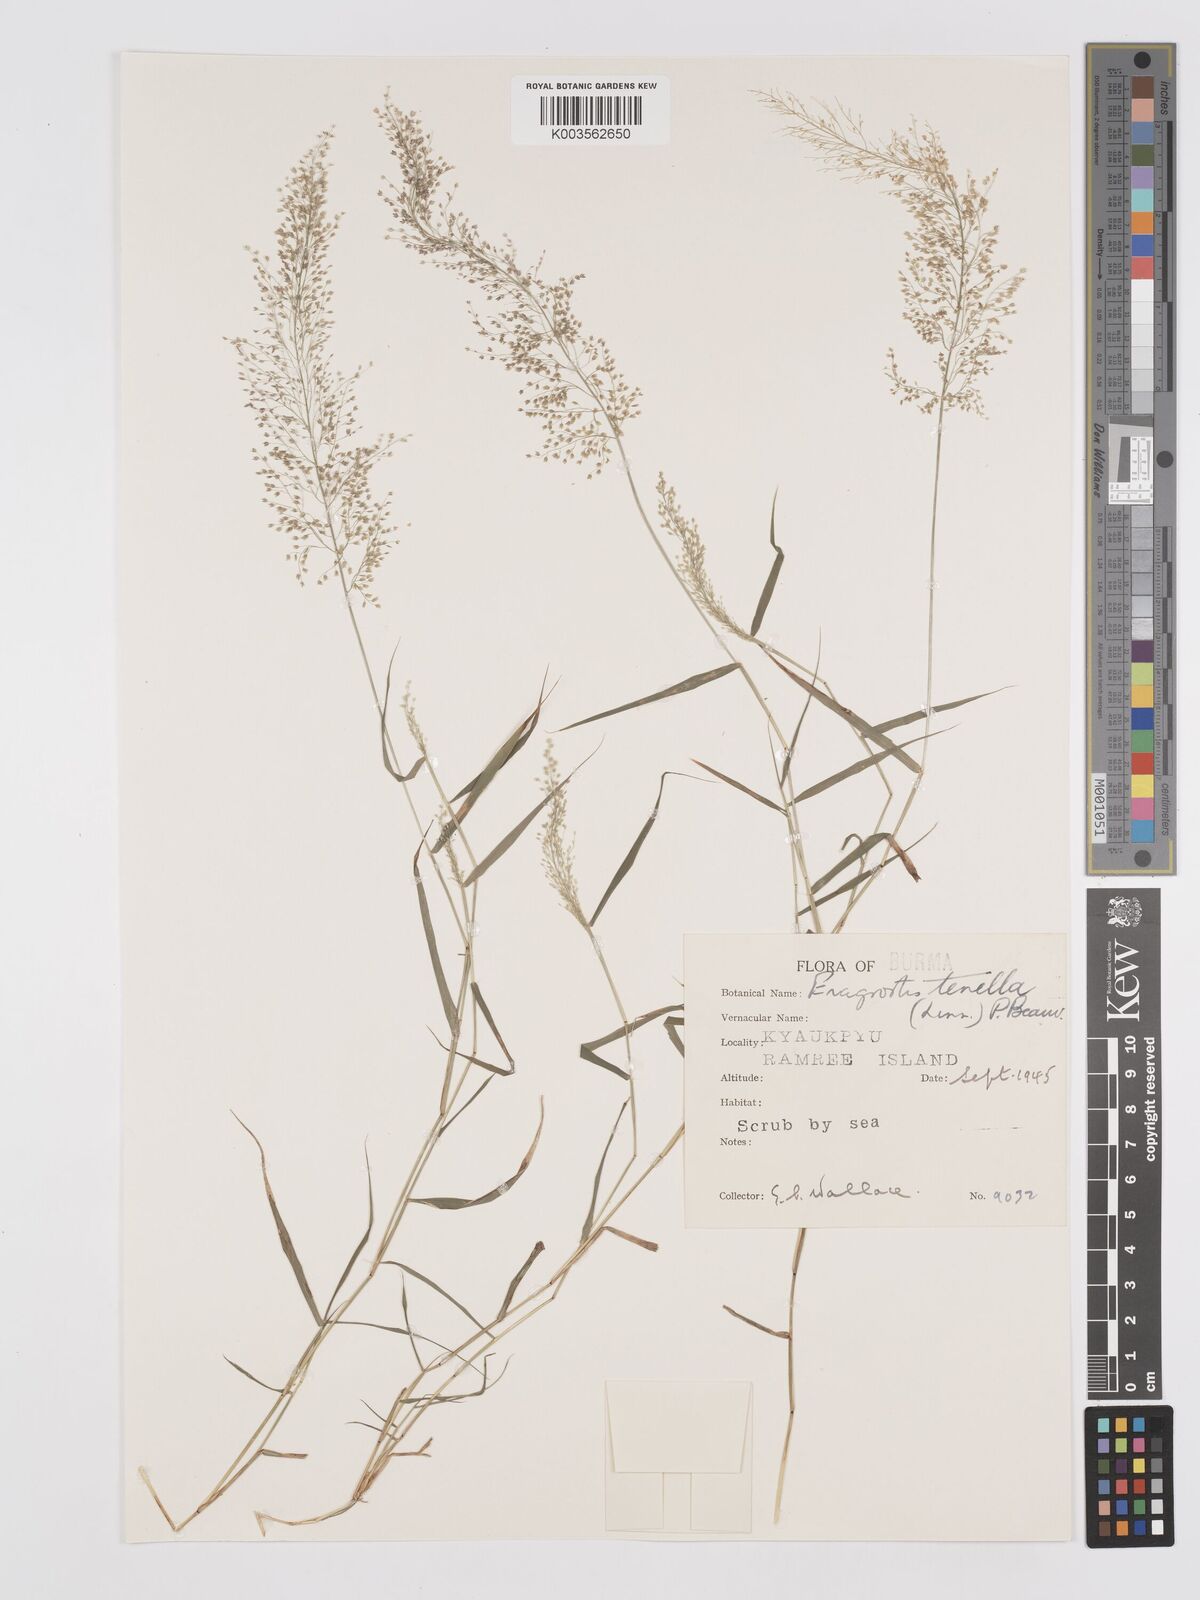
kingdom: Plantae
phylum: Tracheophyta
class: Liliopsida
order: Poales
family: Poaceae
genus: Eragrostis
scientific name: Eragrostis tenella
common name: Japanese lovegrass
